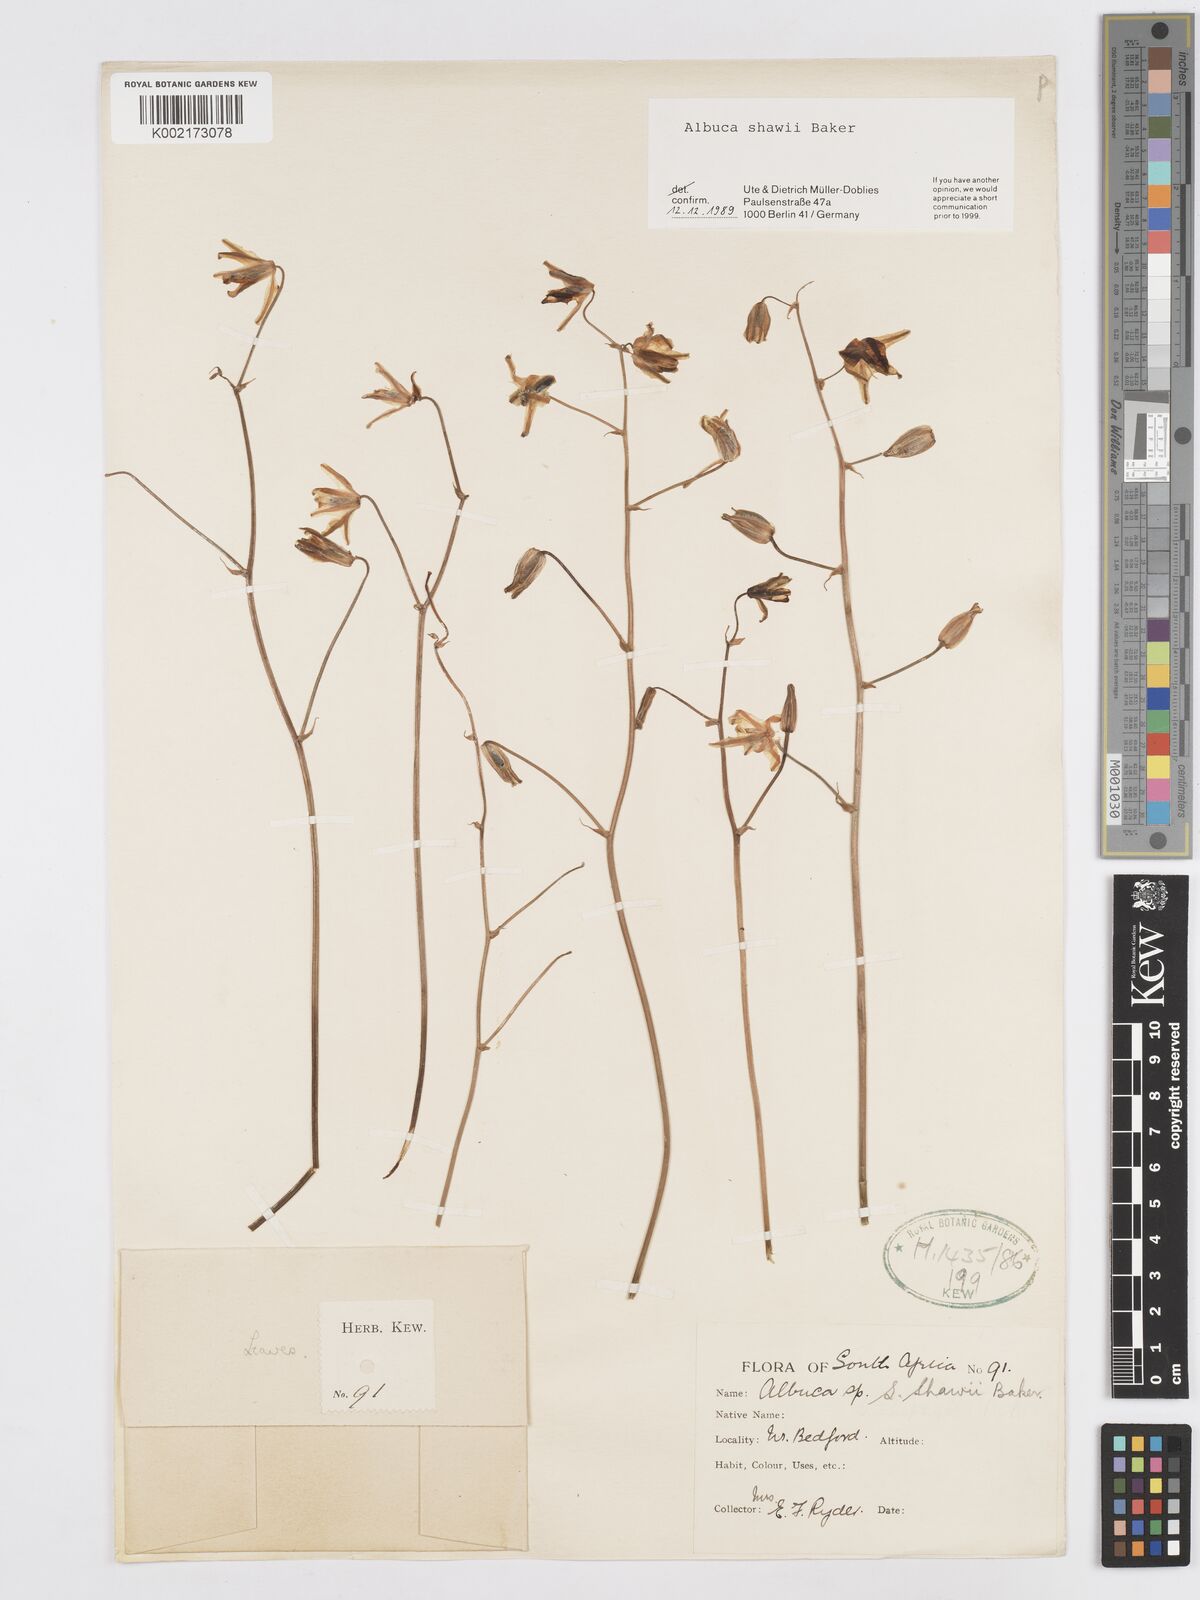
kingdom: Plantae
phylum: Tracheophyta
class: Liliopsida
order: Asparagales
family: Asparagaceae
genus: Albuca
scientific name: Albuca shawii
